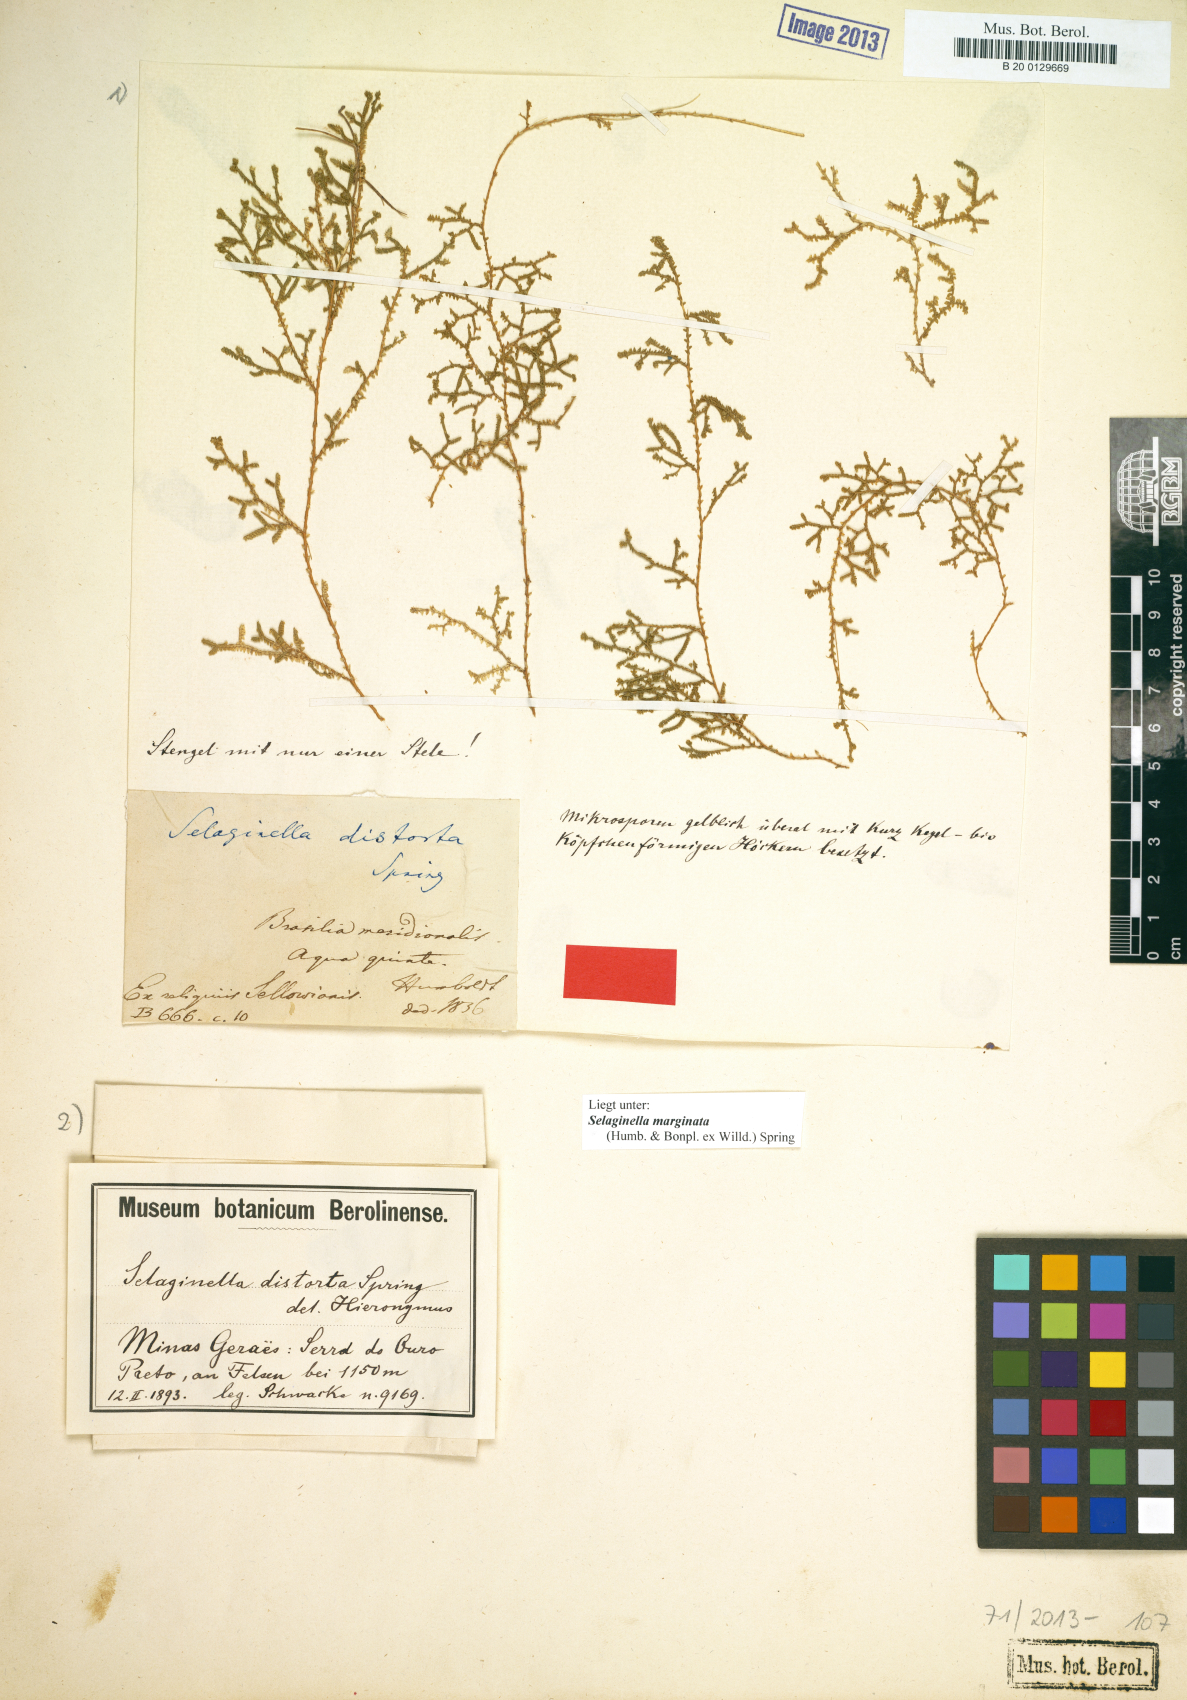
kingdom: Plantae
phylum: Tracheophyta
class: Lycopodiopsida
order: Selaginellales
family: Selaginellaceae
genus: Selaginella
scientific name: Selaginella marginata
